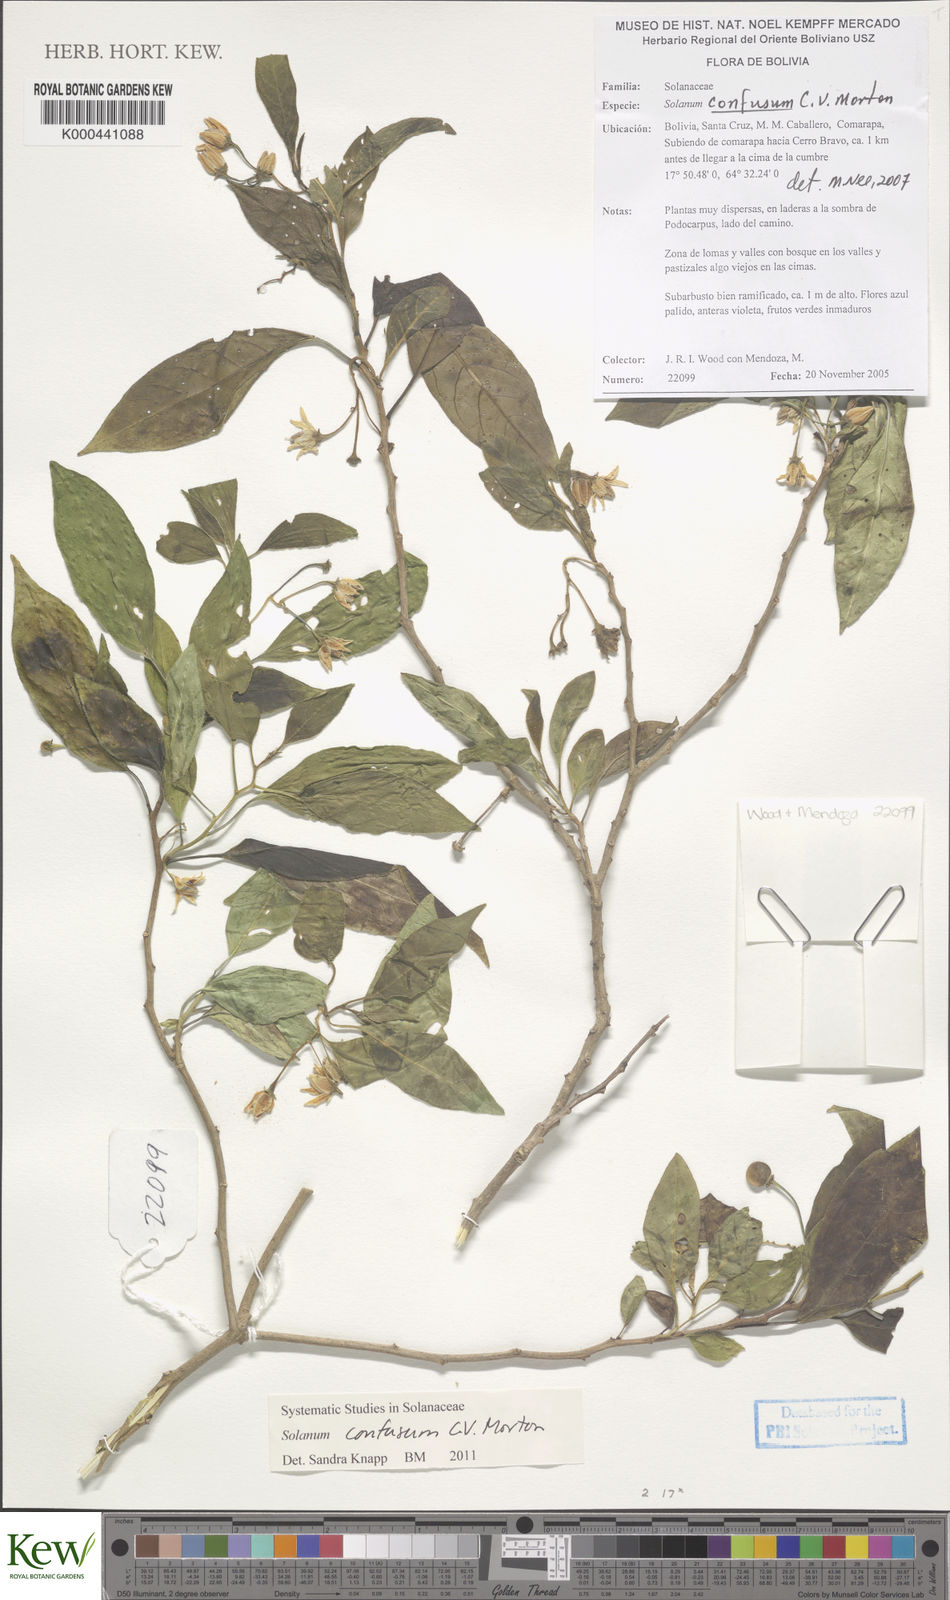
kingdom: Plantae
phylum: Tracheophyta
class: Magnoliopsida
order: Solanales
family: Solanaceae
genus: Solanum
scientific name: Solanum confusum
